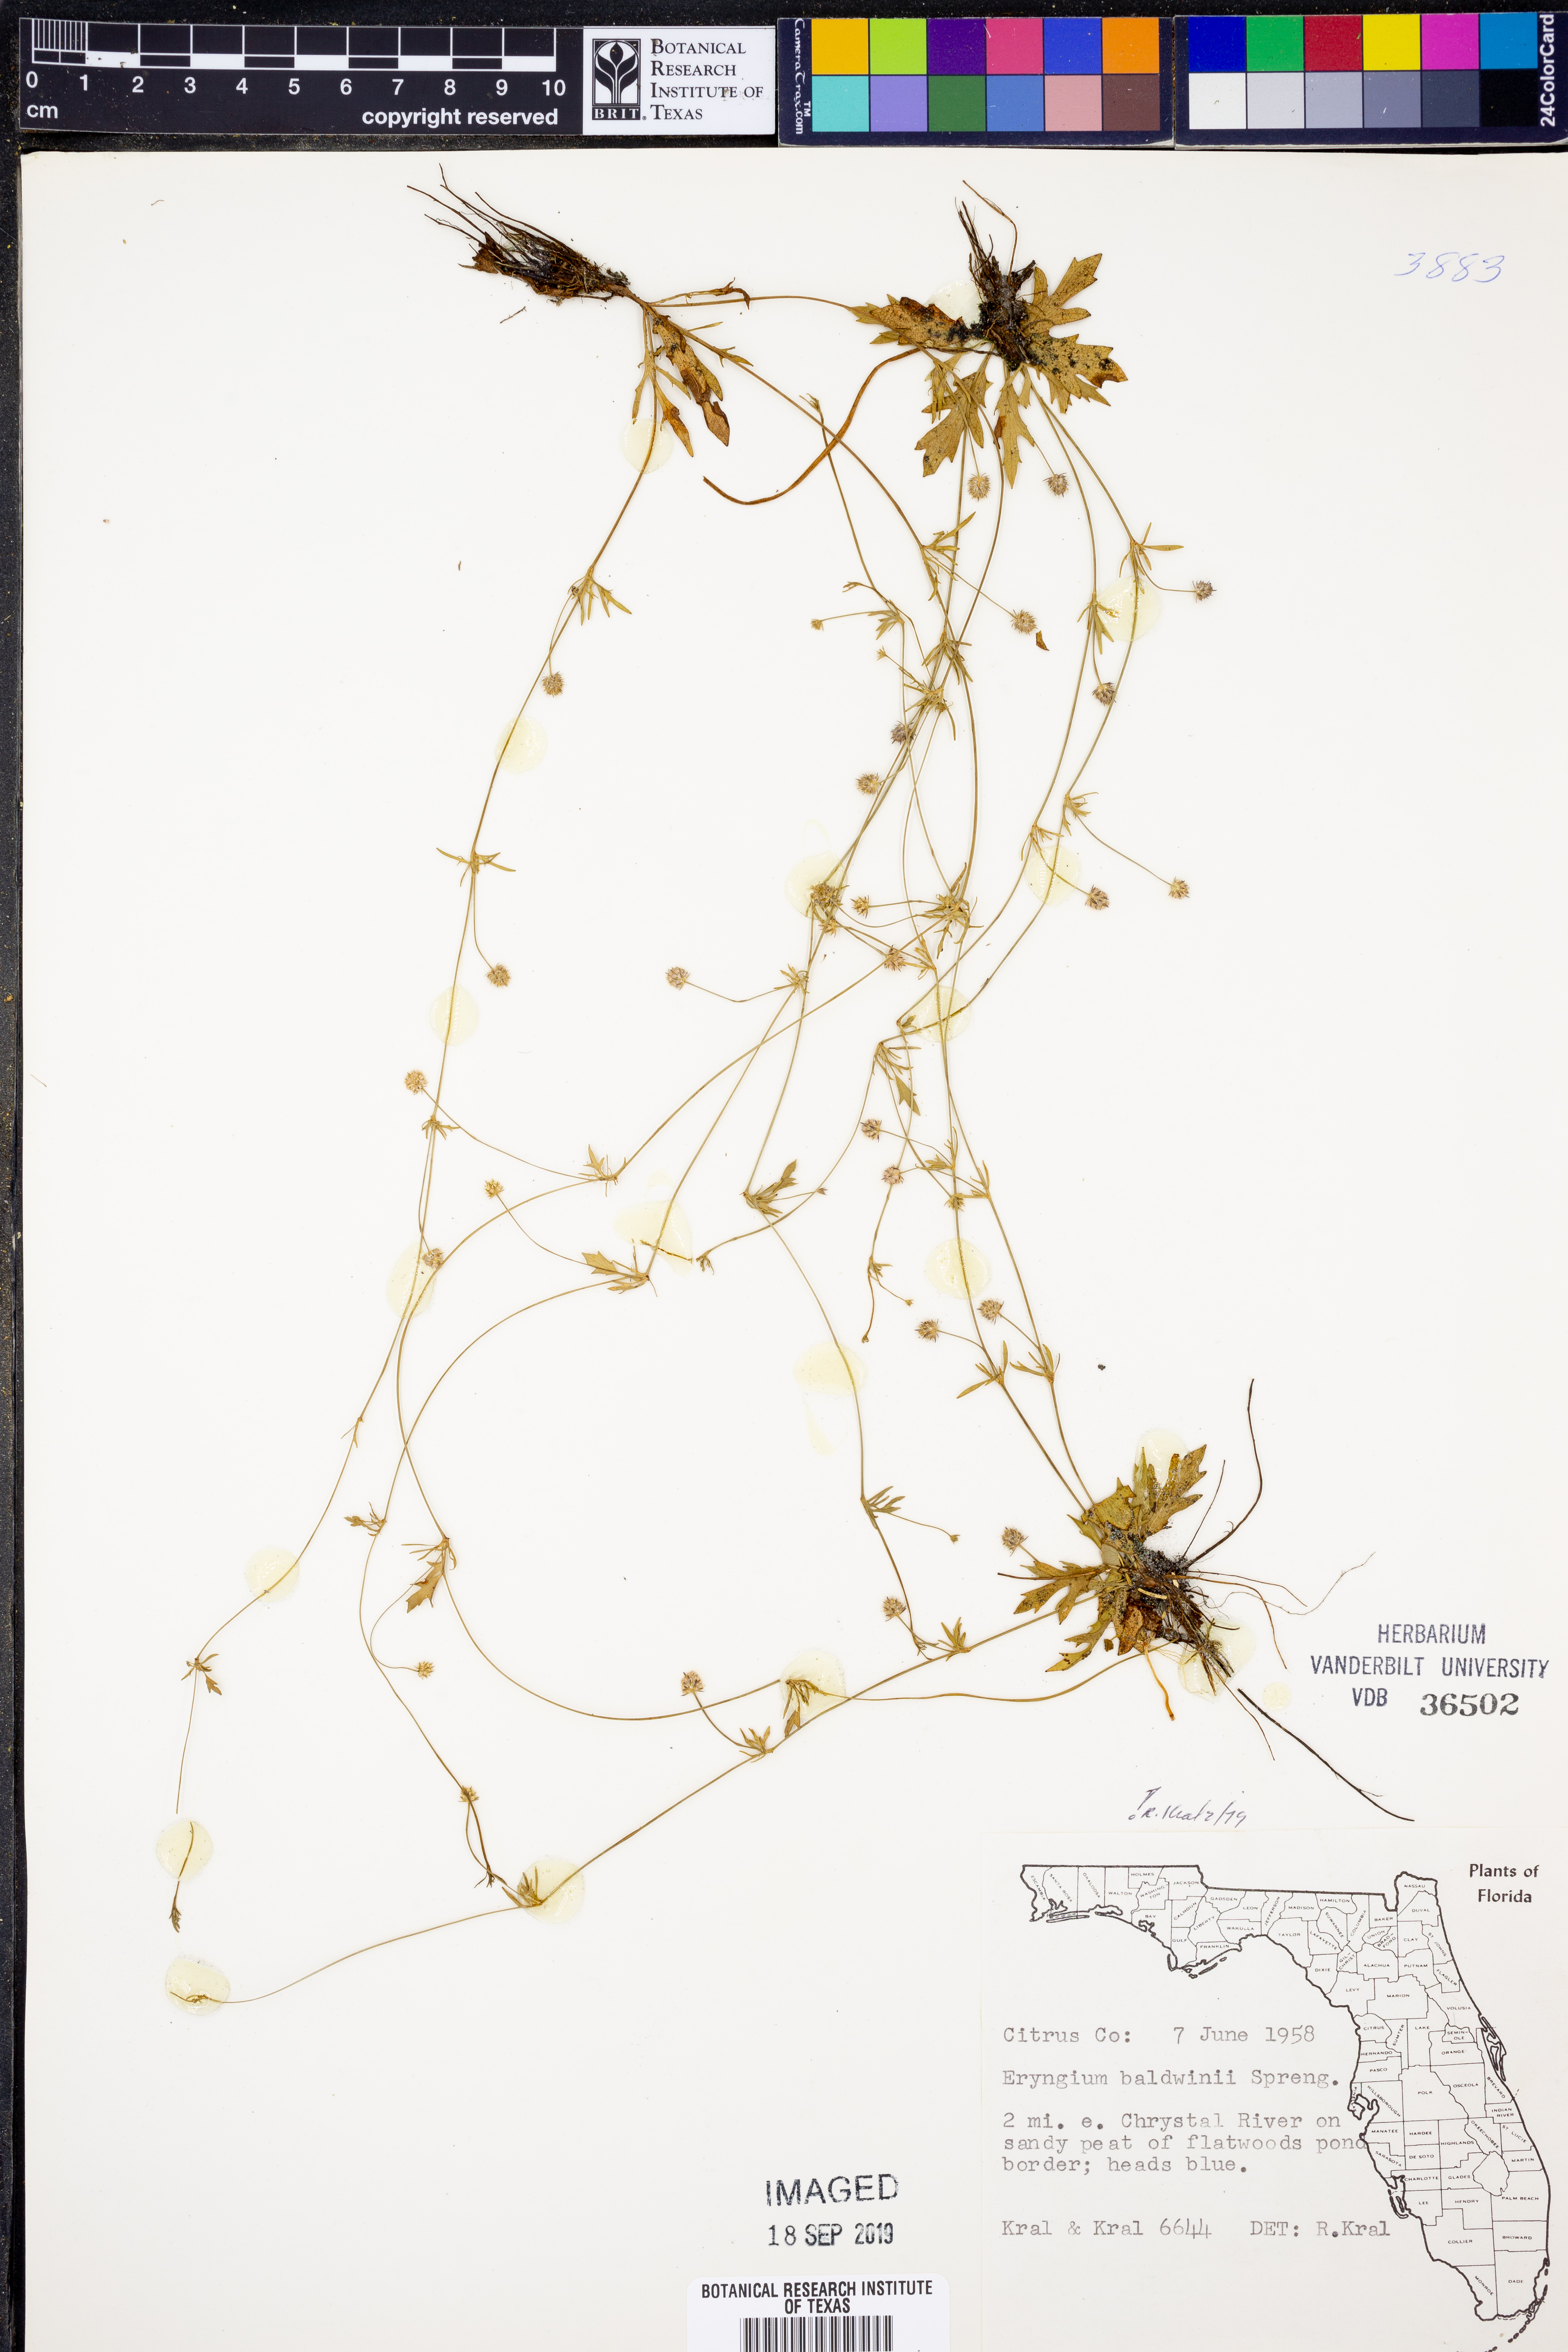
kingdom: Plantae
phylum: Tracheophyta
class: Magnoliopsida
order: Apiales
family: Apiaceae
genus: Eryngium
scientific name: Eryngium baldwinii
